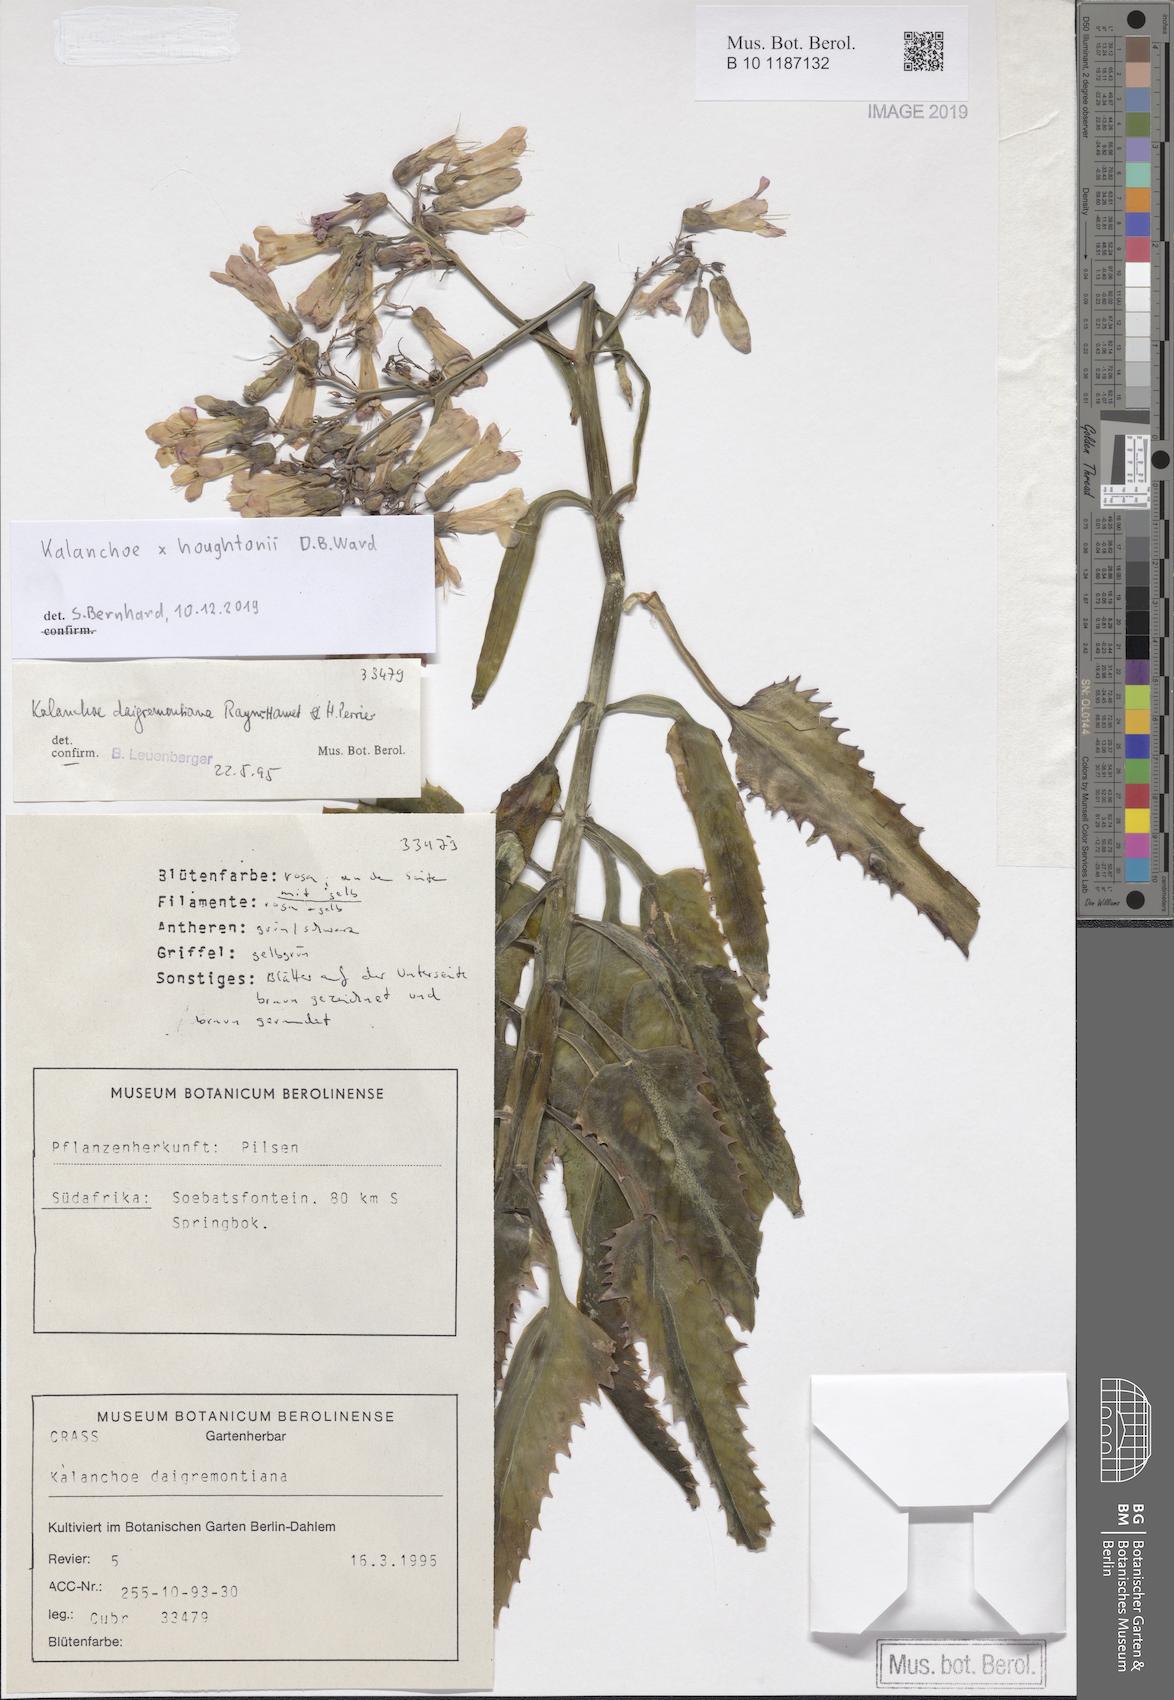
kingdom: Plantae
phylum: Tracheophyta
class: Magnoliopsida
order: Saxifragales
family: Crassulaceae
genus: Kalanchoe
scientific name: Kalanchoe houghtonii
